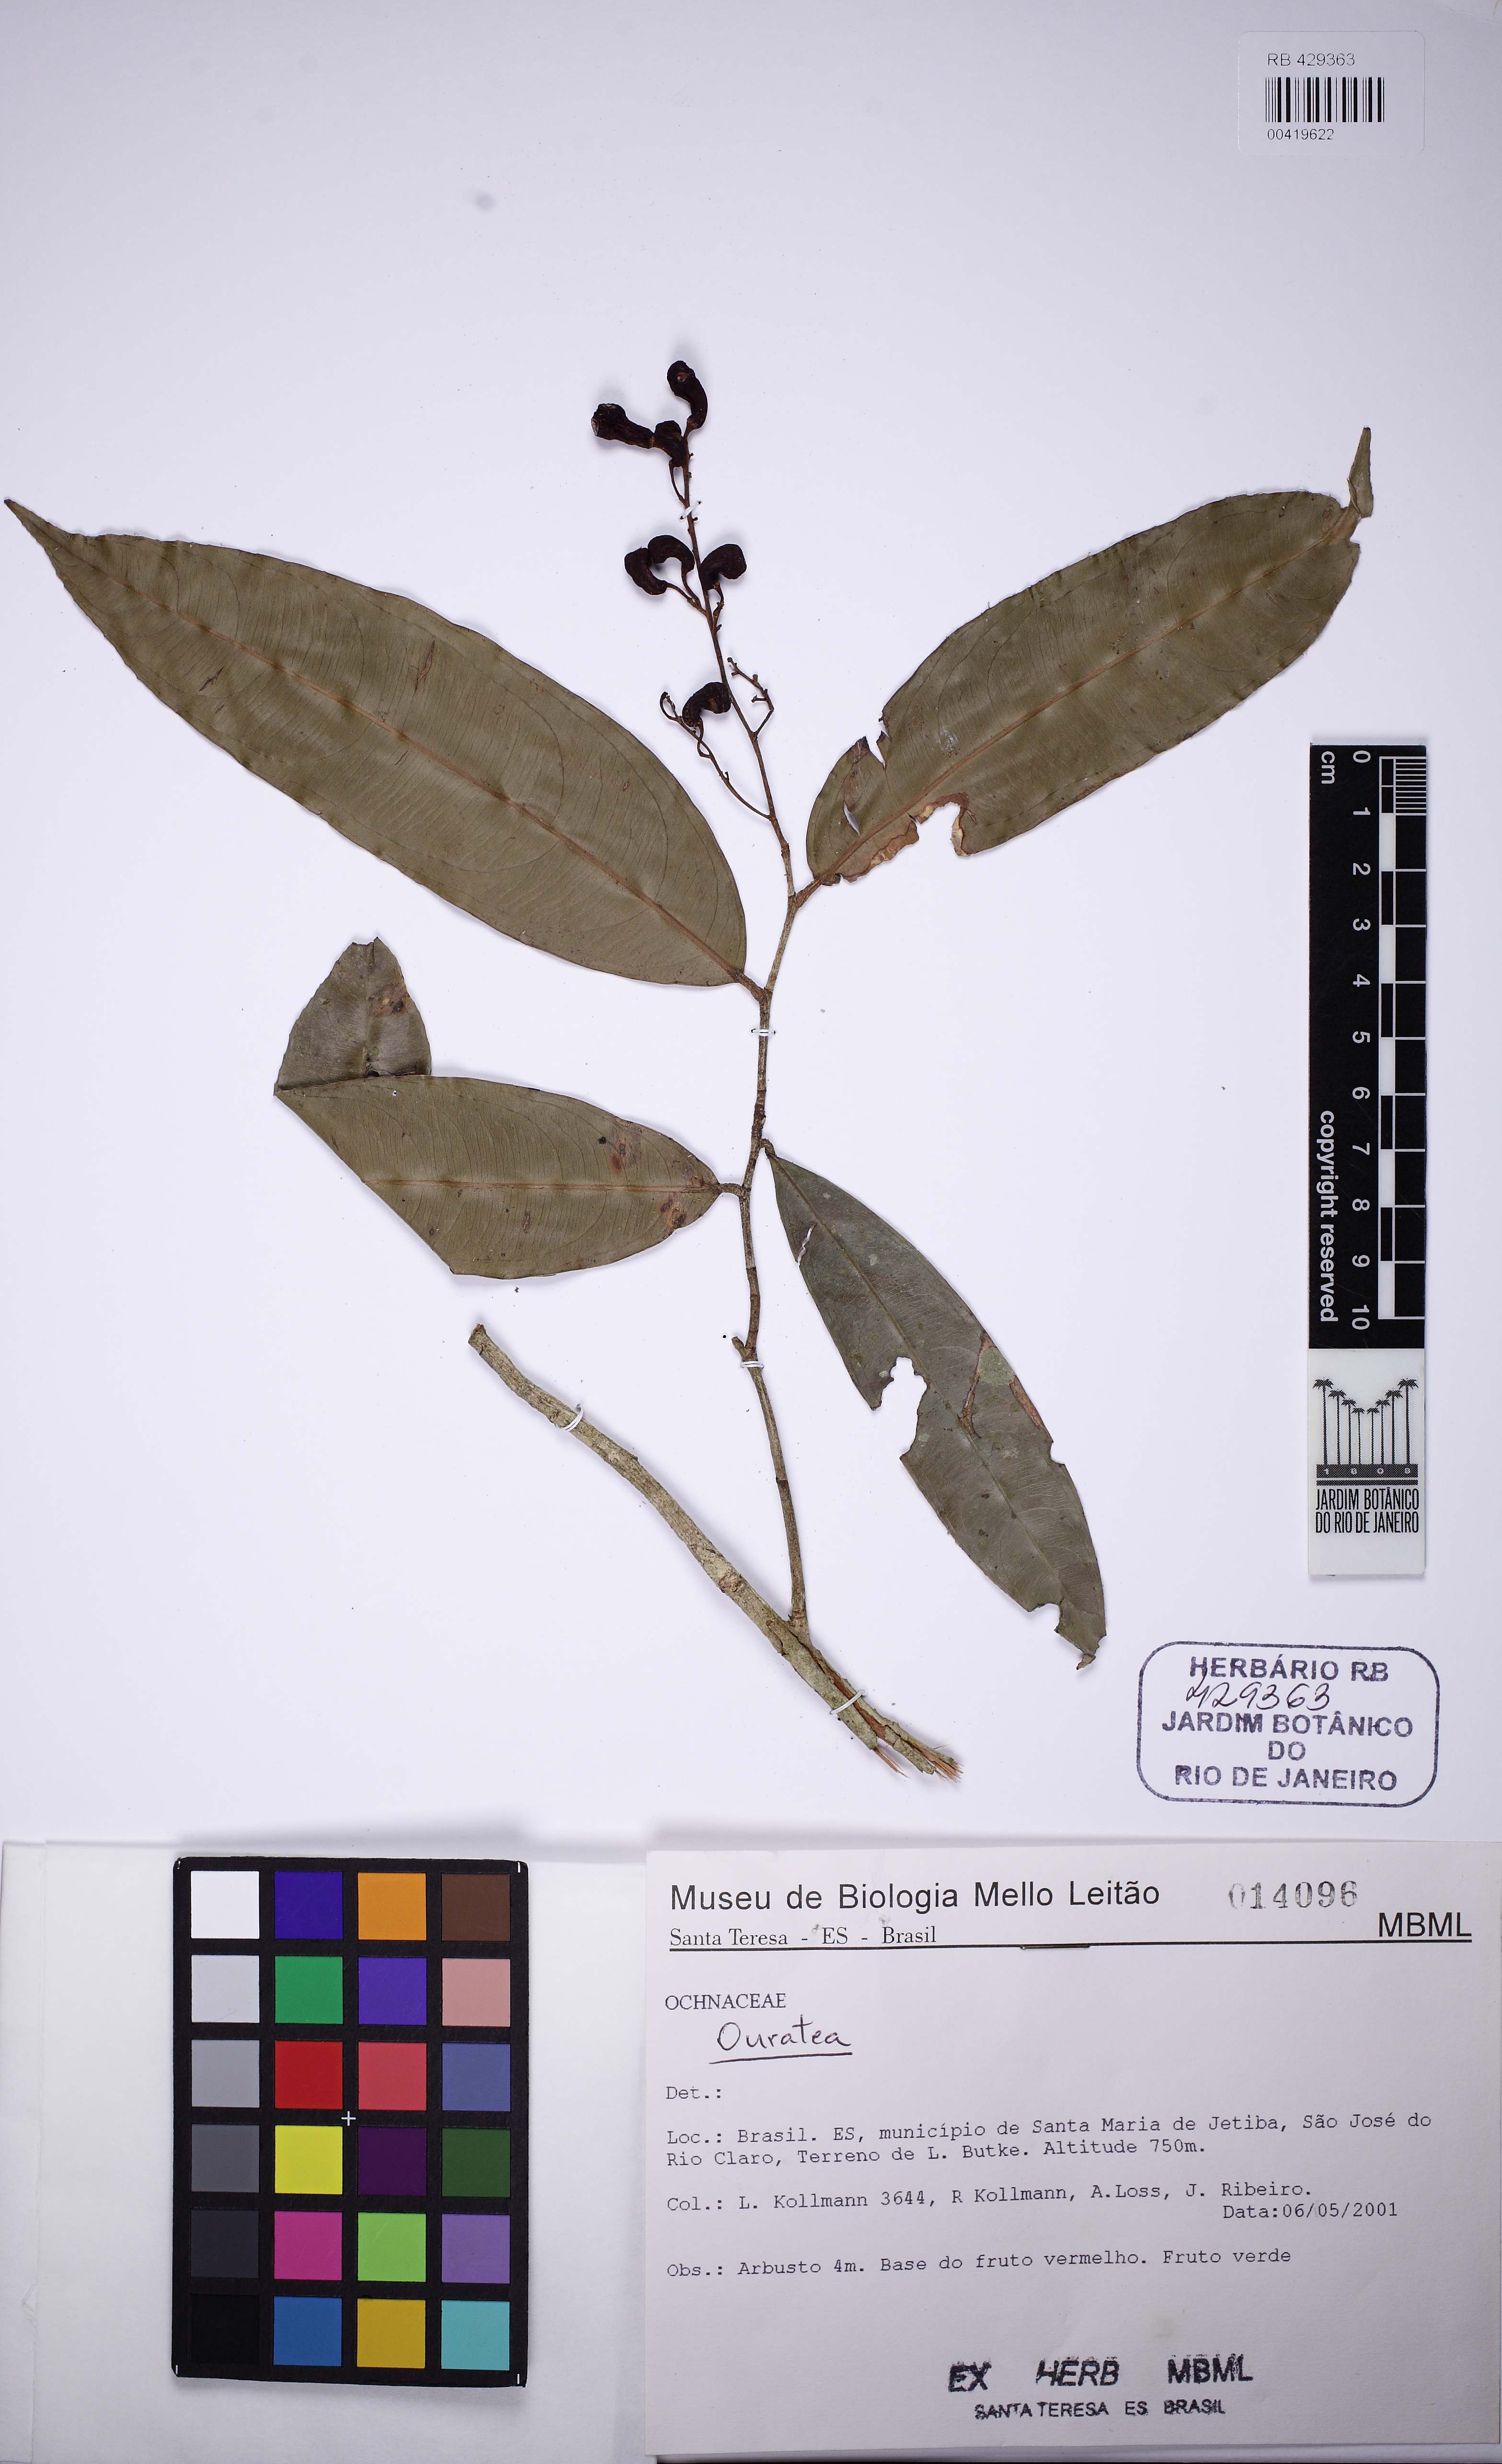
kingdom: Plantae
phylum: Tracheophyta
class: Magnoliopsida
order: Malpighiales
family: Ochnaceae
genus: Ouratea
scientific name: Ouratea
